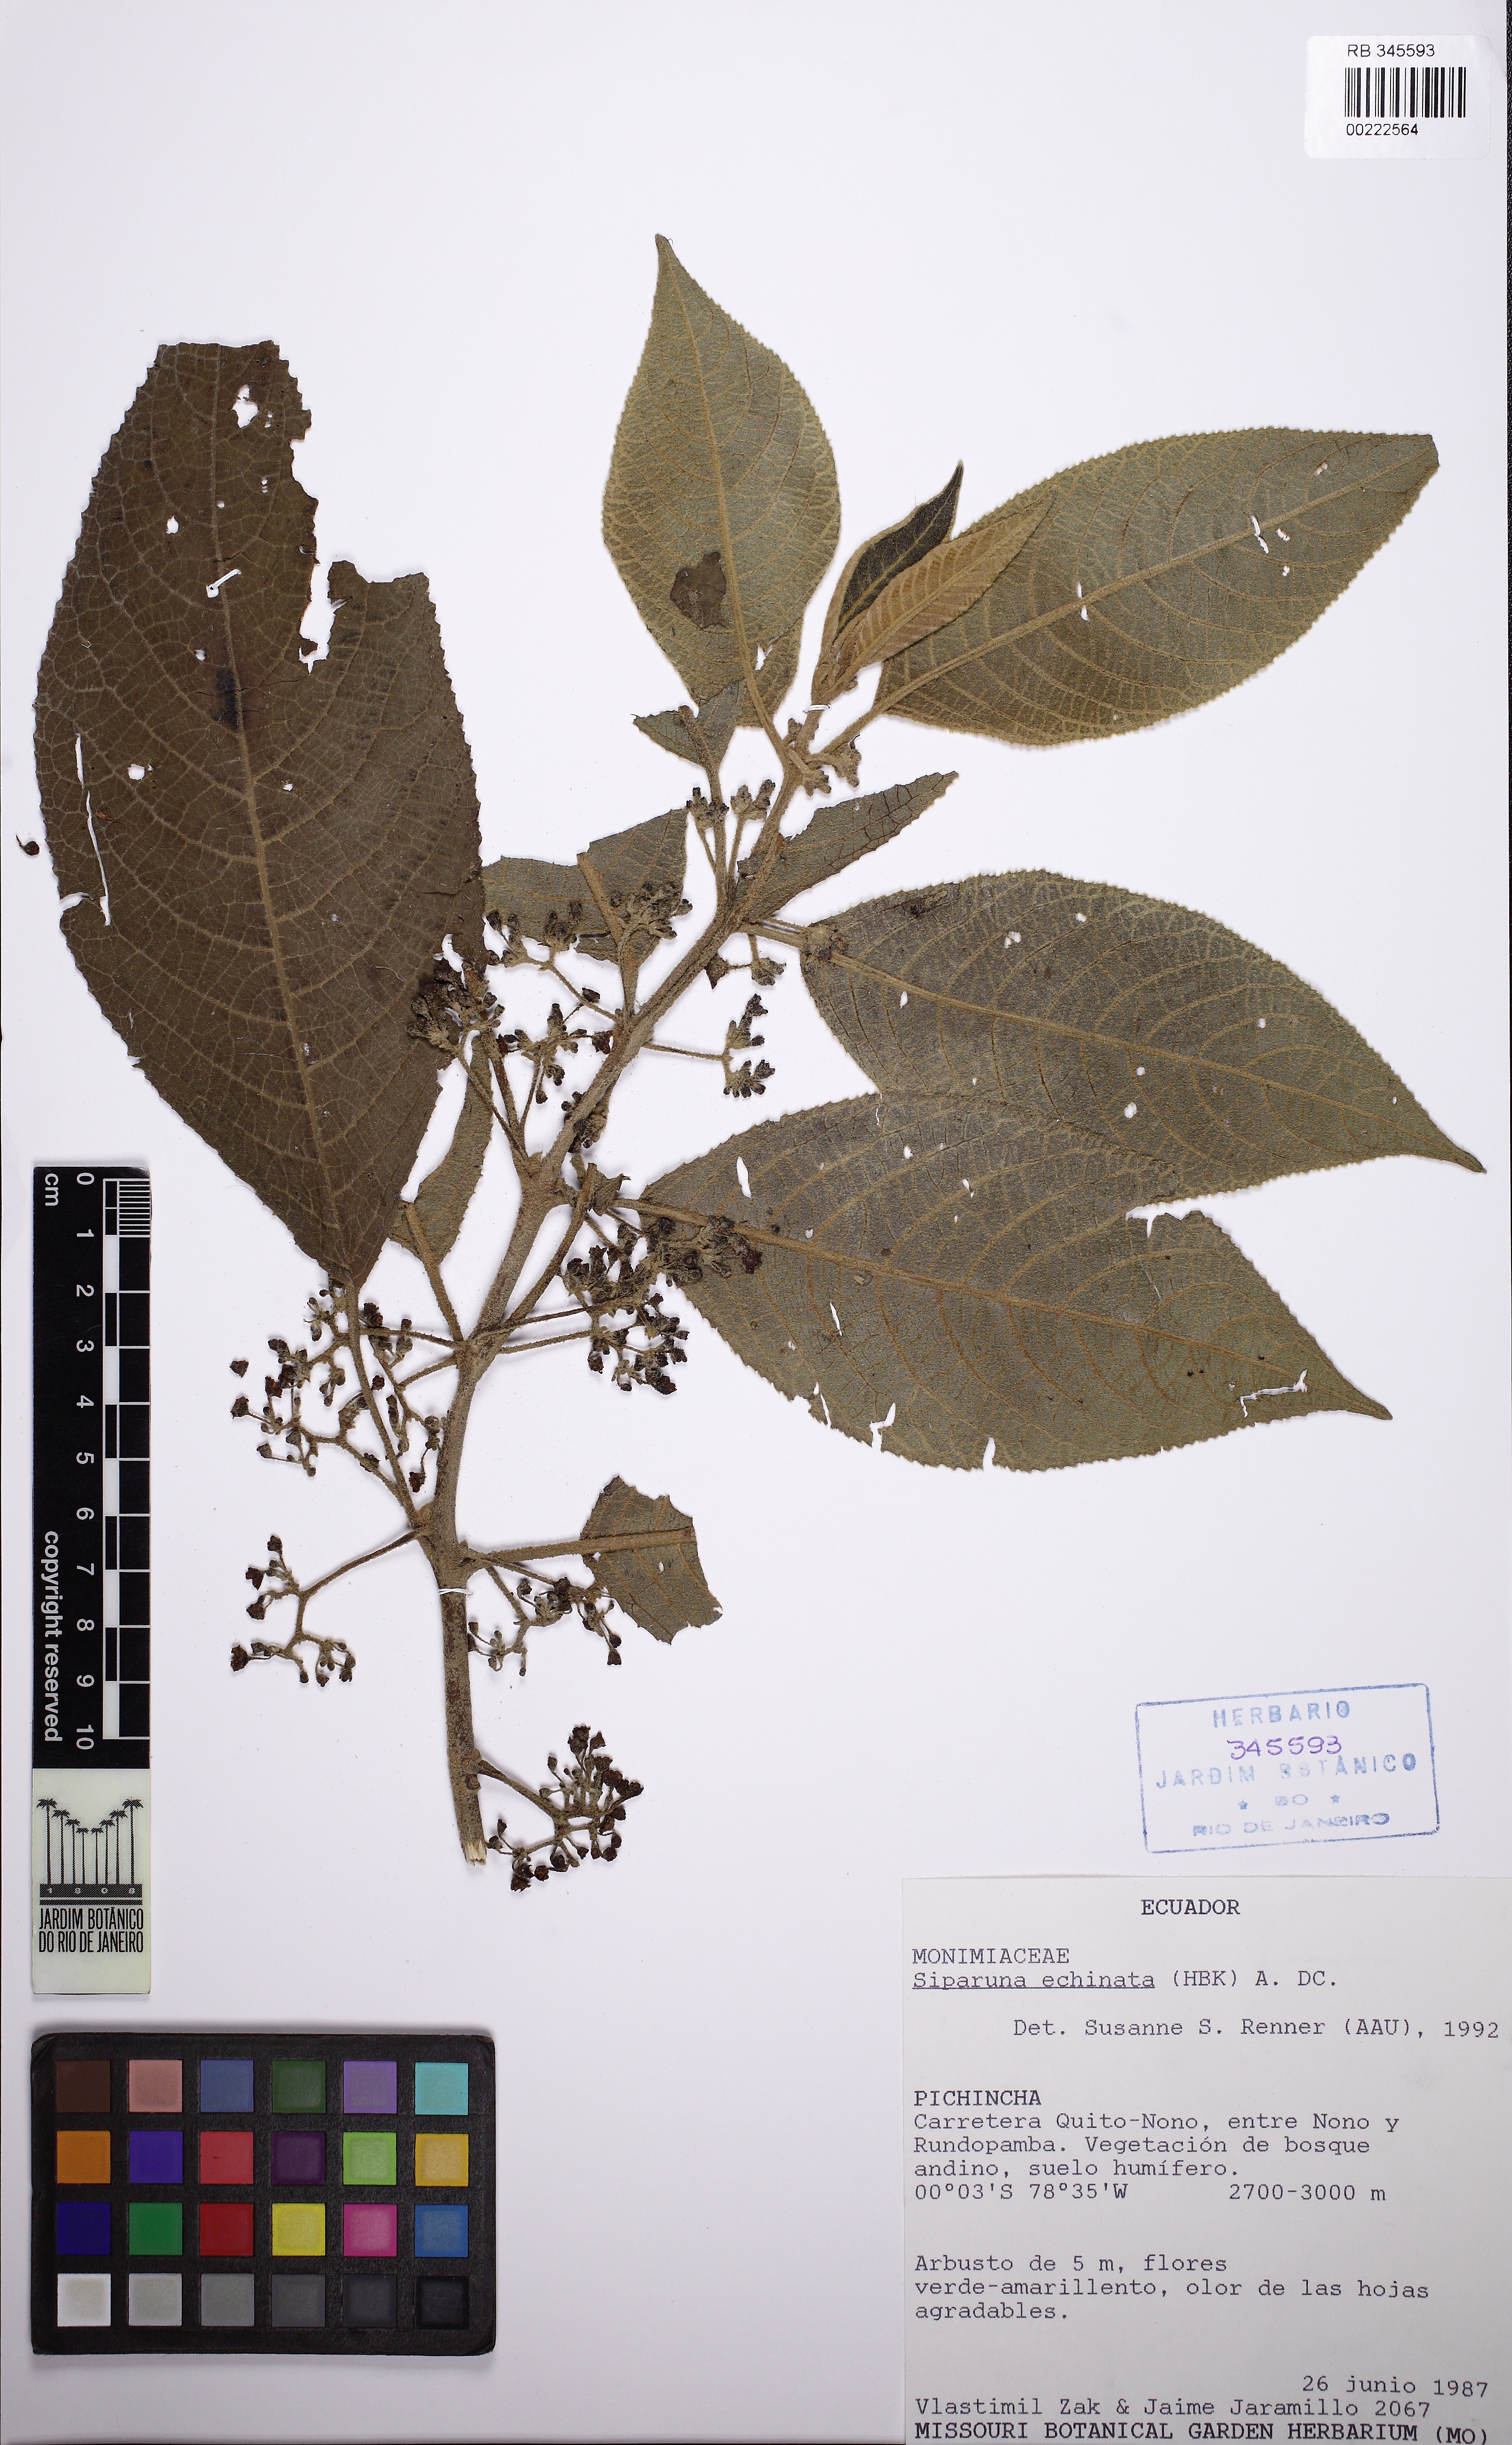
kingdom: Plantae
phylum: Tracheophyta
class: Magnoliopsida
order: Laurales
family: Siparunaceae
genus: Siparuna
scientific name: Siparuna echinata
